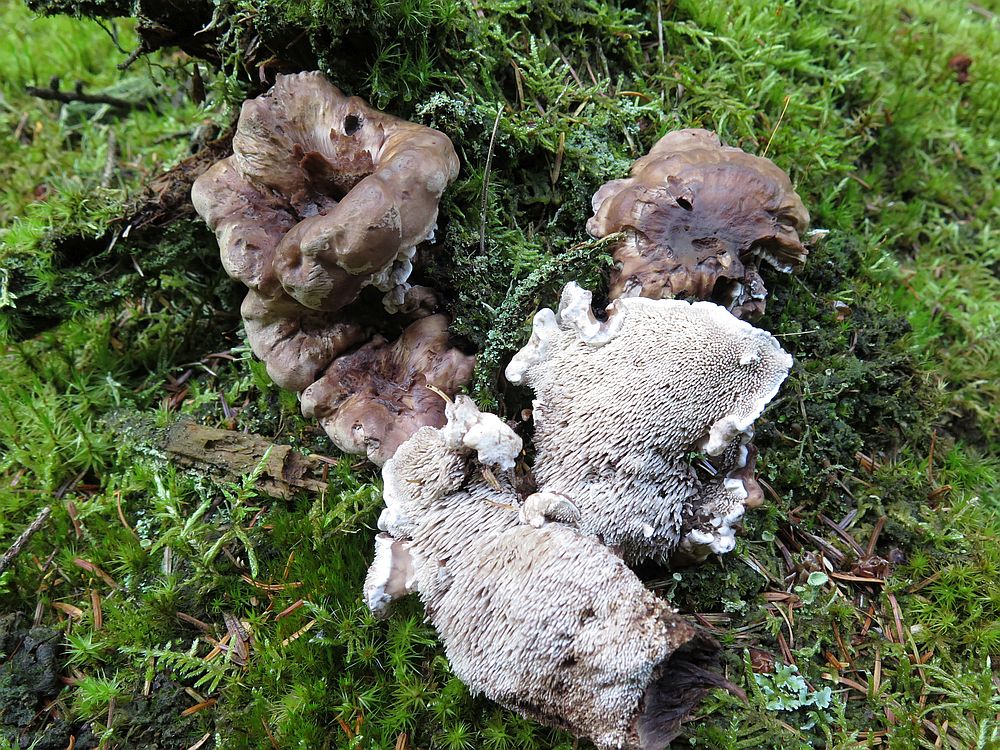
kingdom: Fungi
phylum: Basidiomycota
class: Agaricomycetes
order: Thelephorales
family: Thelephoraceae
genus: Phellodon
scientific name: Phellodon violascens
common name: violetbrun duftpigsvamp
